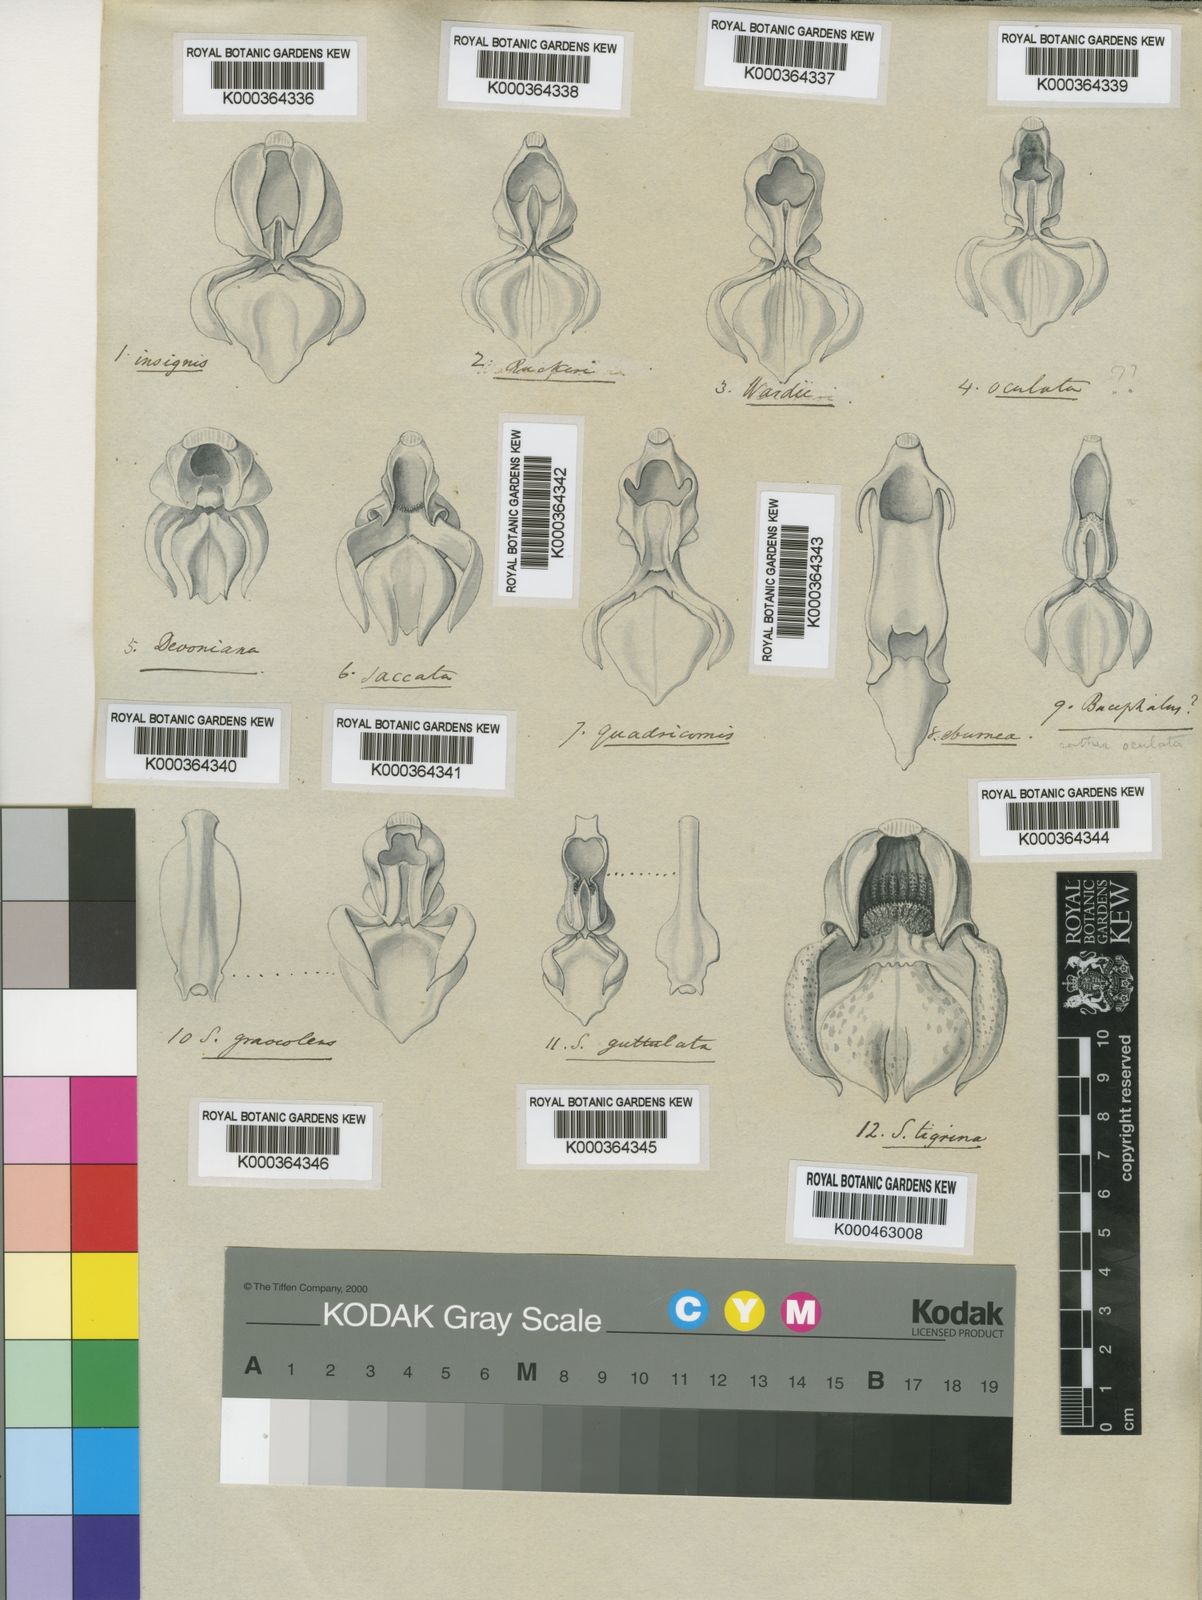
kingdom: Plantae
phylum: Tracheophyta
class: Liliopsida
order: Asparagales
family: Orchidaceae
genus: Stanhopea
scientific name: Stanhopea quadricornis
